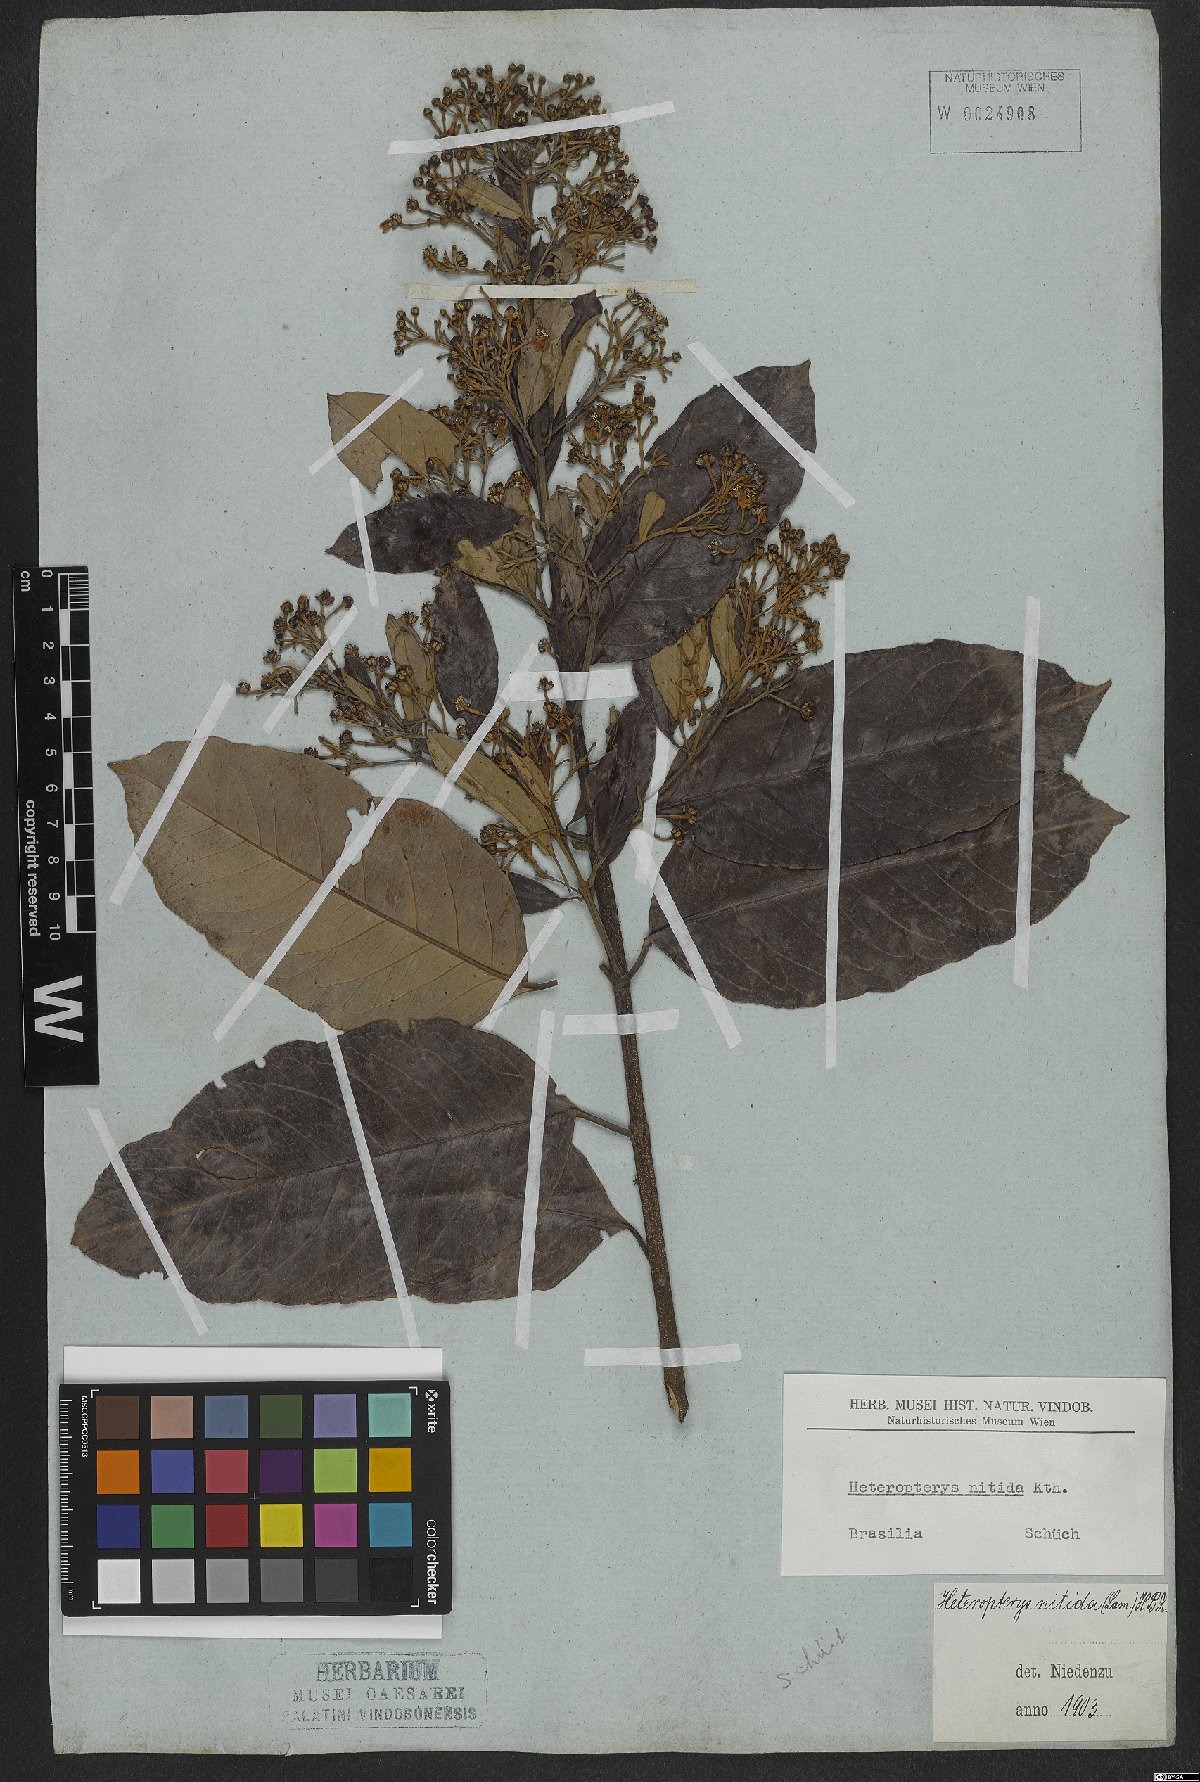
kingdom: Plantae
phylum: Tracheophyta
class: Magnoliopsida
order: Malpighiales
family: Malpighiaceae
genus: Heteropterys
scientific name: Heteropterys nitida
